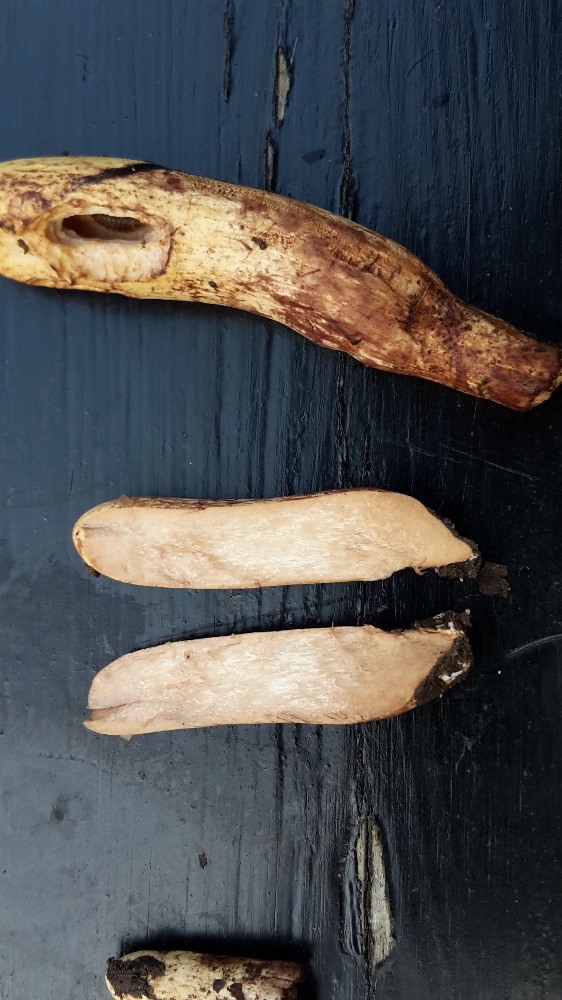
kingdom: Fungi
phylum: Basidiomycota
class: Agaricomycetes
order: Gomphales
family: Clavariadelphaceae
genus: Clavariadelphus
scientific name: Clavariadelphus pistillaris
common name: herkules-kæmpekølle
